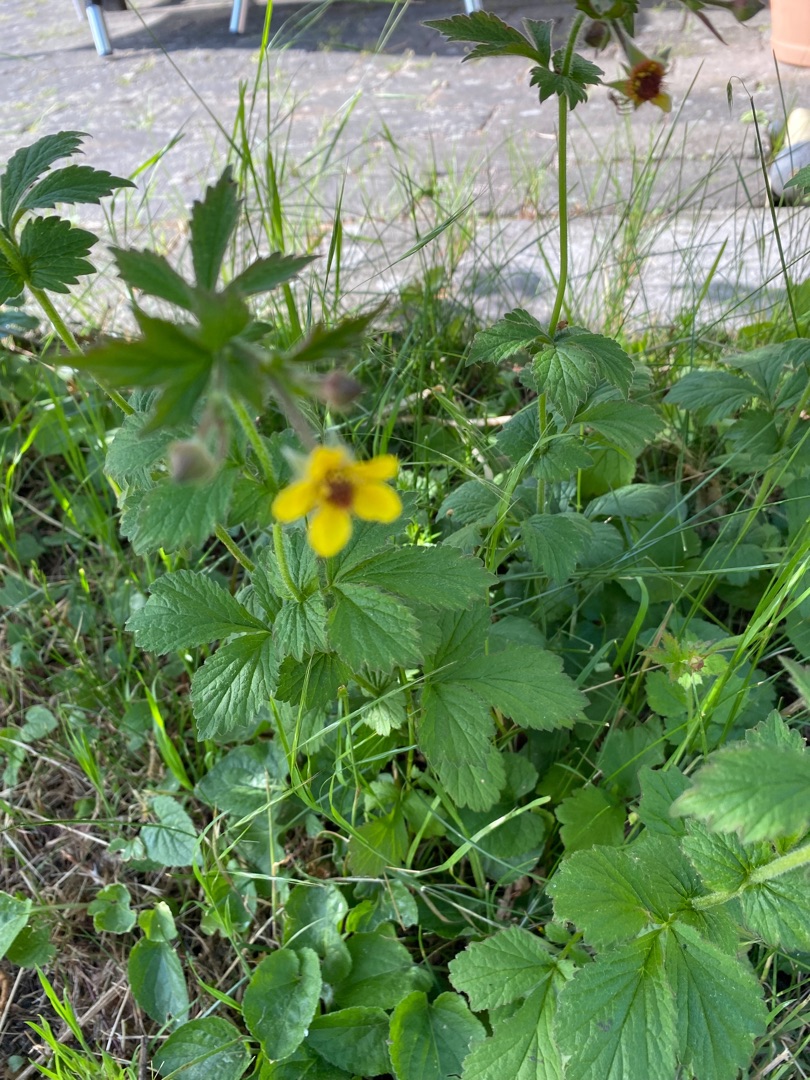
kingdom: Plantae
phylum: Tracheophyta
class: Magnoliopsida
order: Rosales
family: Rosaceae
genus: Geum
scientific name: Geum urbanum
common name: Feber-nellikerod
